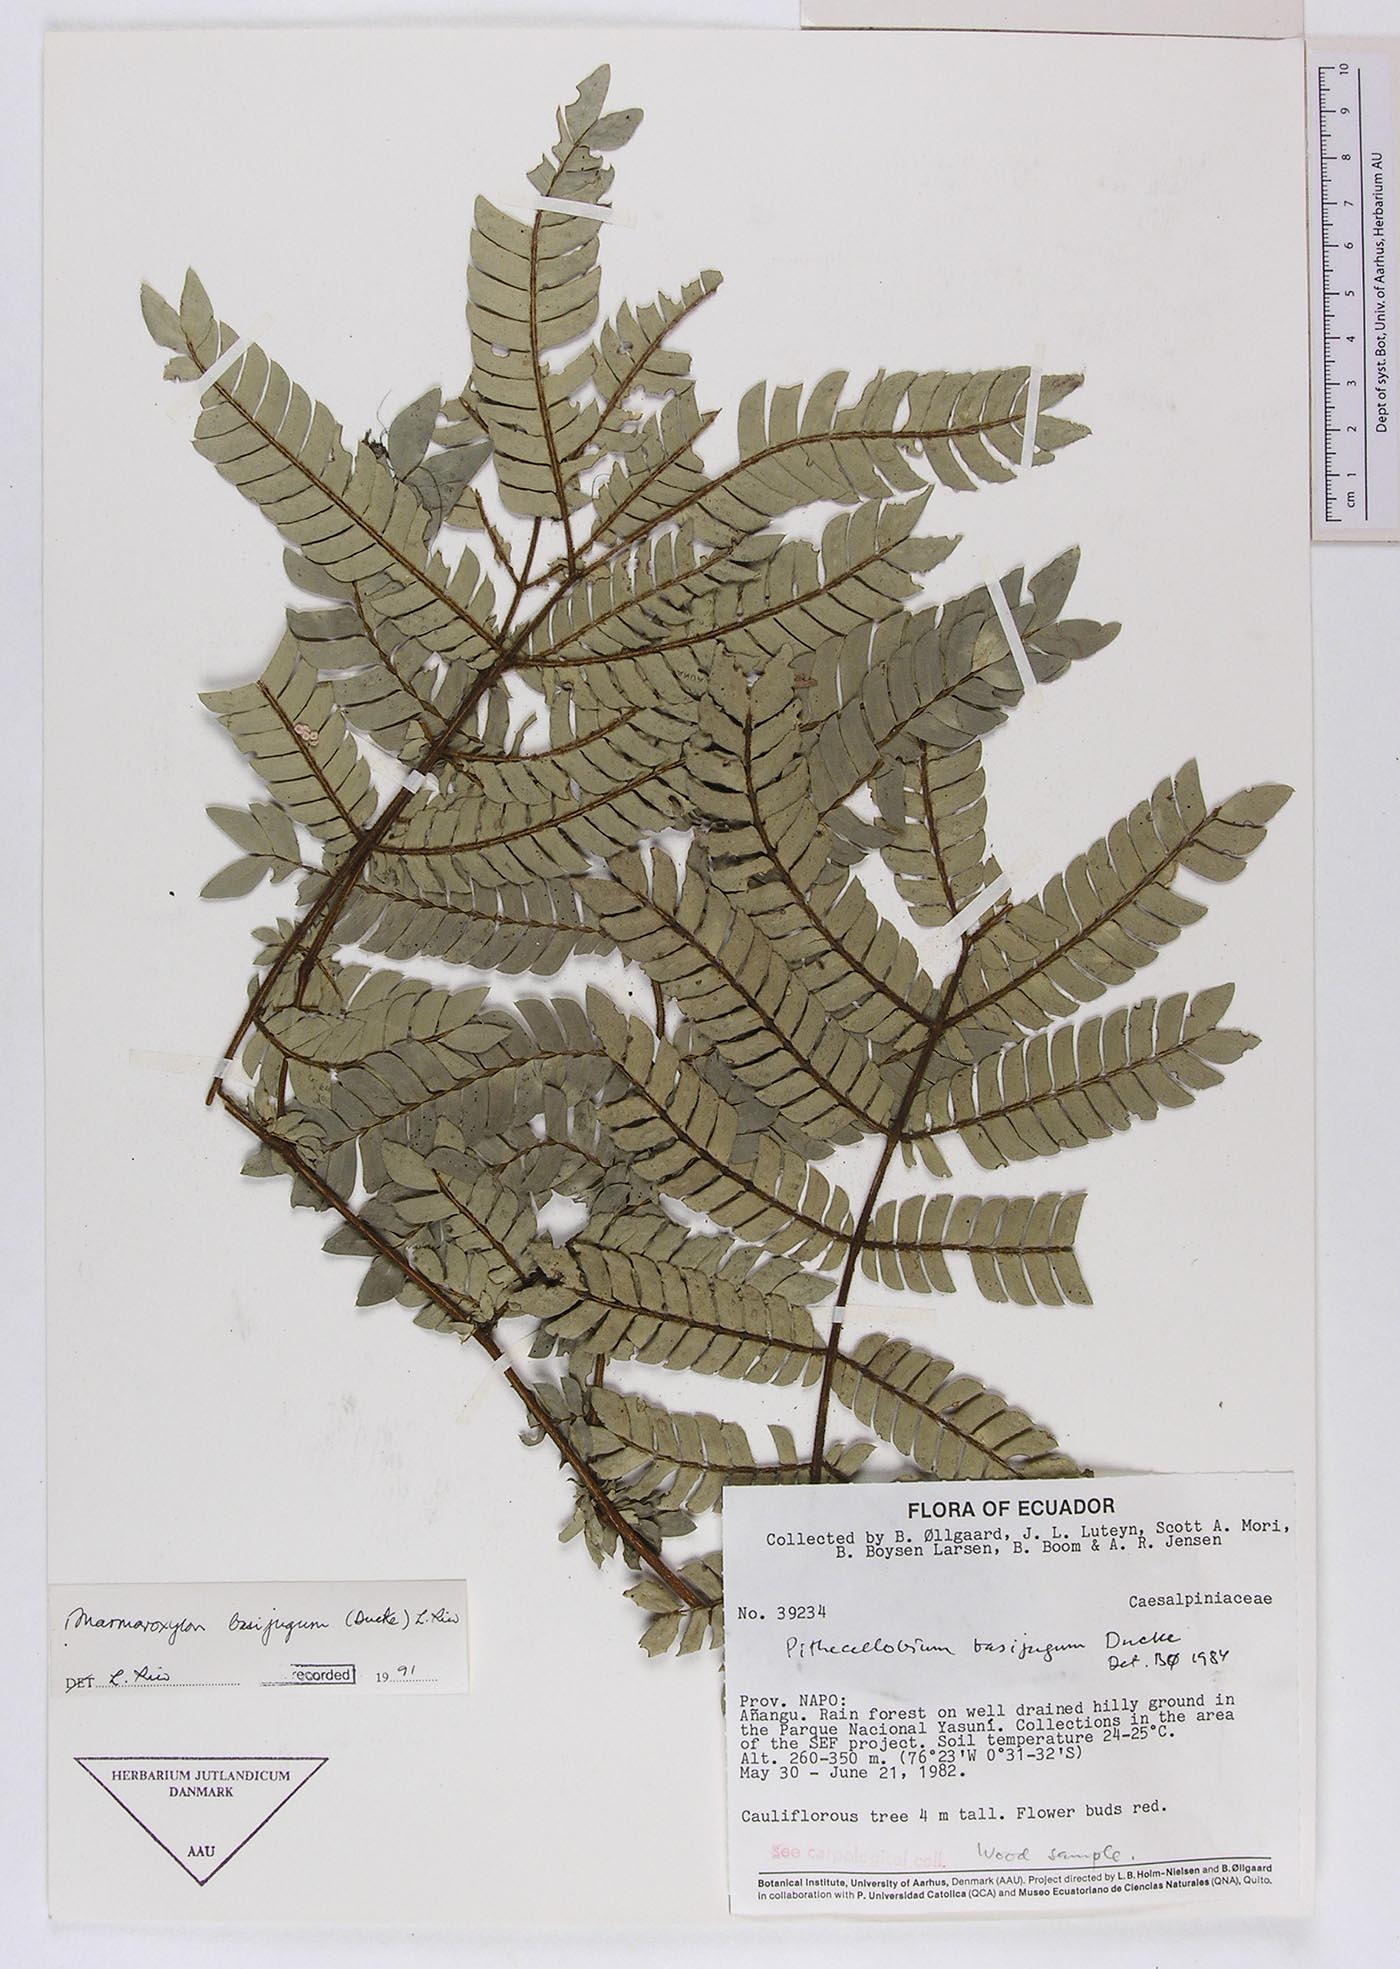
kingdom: Plantae
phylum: Tracheophyta
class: Magnoliopsida
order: Fabales
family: Fabaceae
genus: Zygia
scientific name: Zygia basijuga
